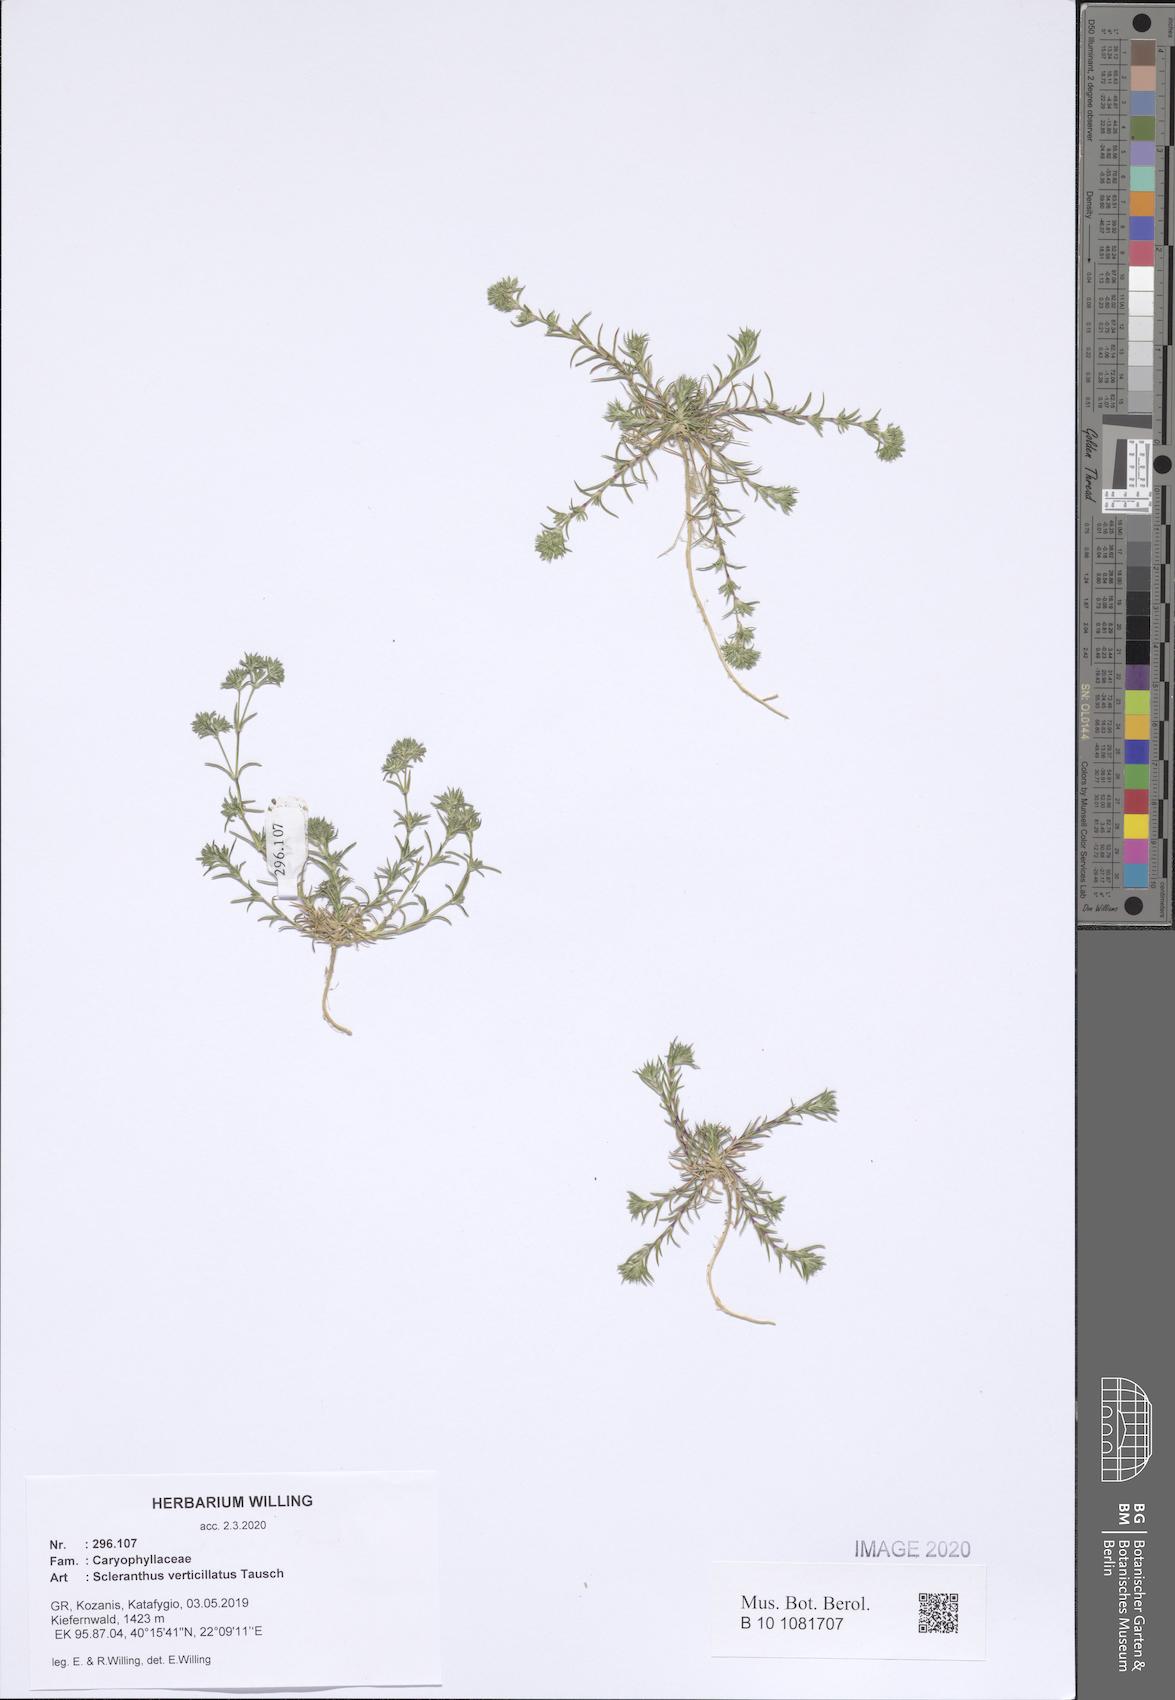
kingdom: Plantae
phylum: Tracheophyta
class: Magnoliopsida
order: Caryophyllales
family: Caryophyllaceae
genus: Scleranthus
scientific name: Scleranthus verticillatus
